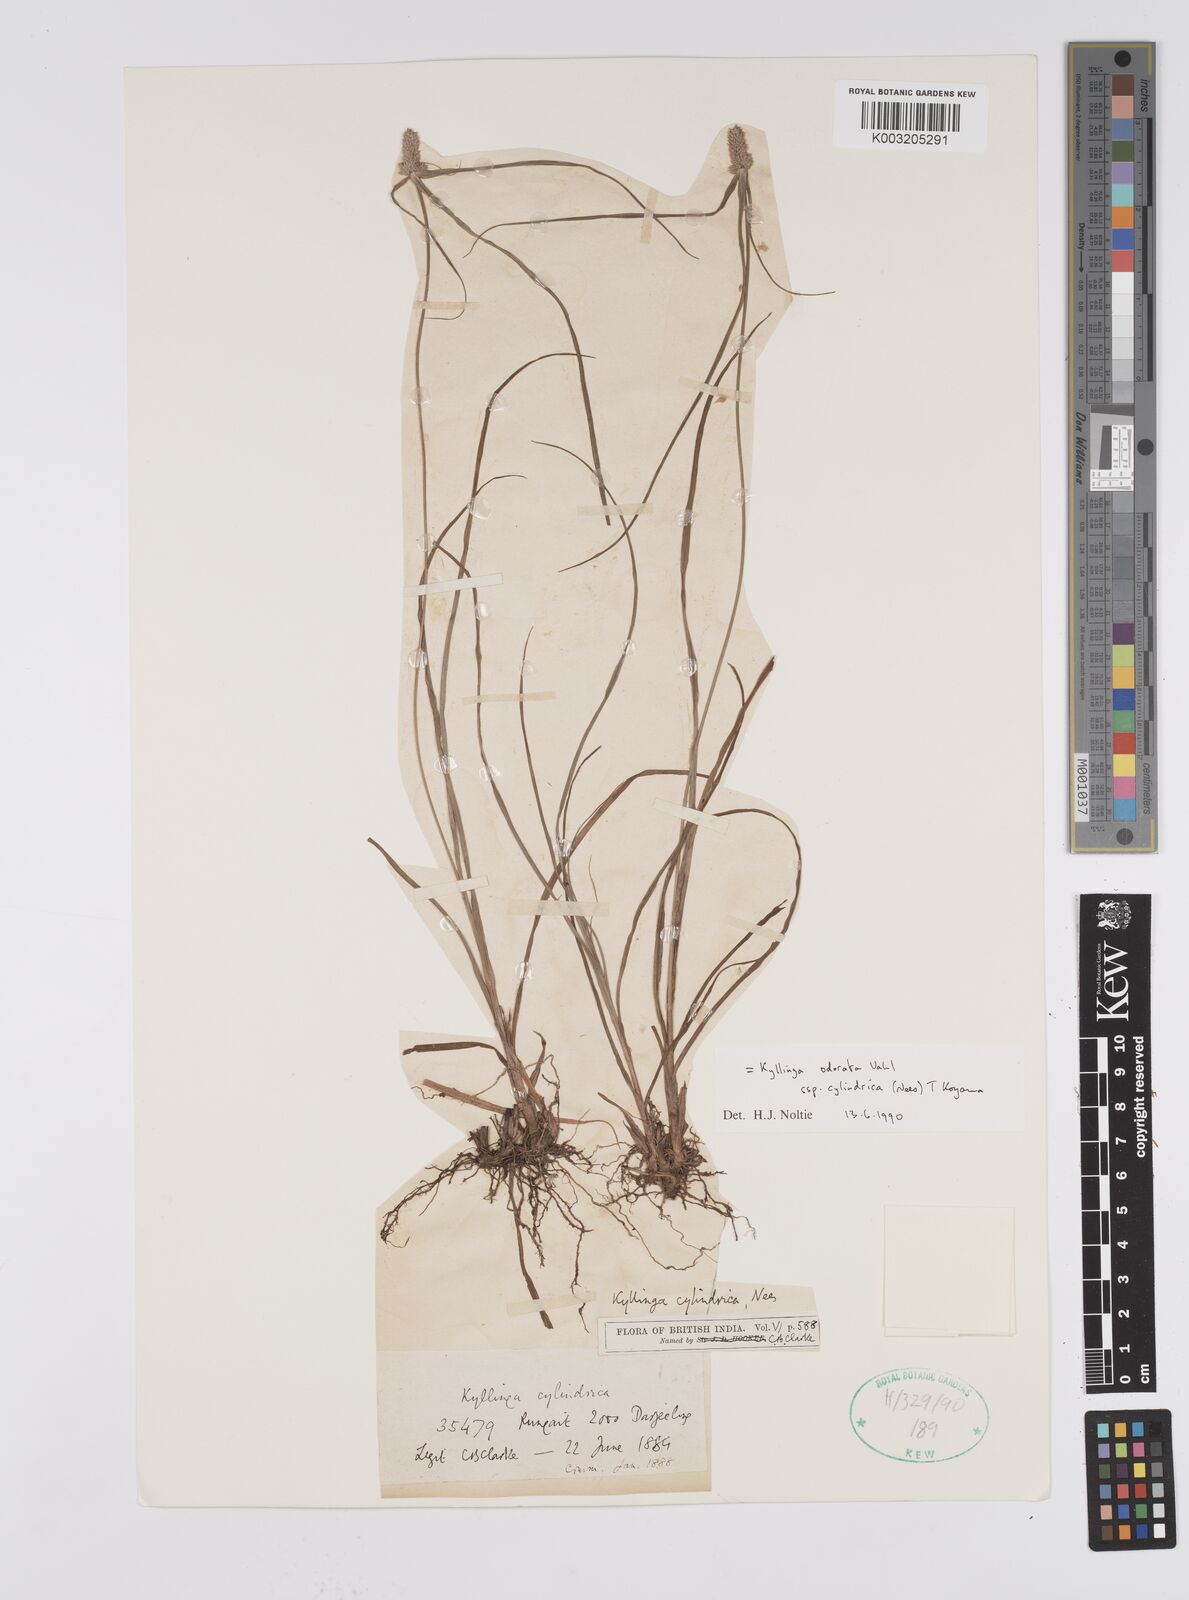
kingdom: Plantae
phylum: Tracheophyta
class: Liliopsida
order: Poales
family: Cyperaceae
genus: Cyperus
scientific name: Cyperus
